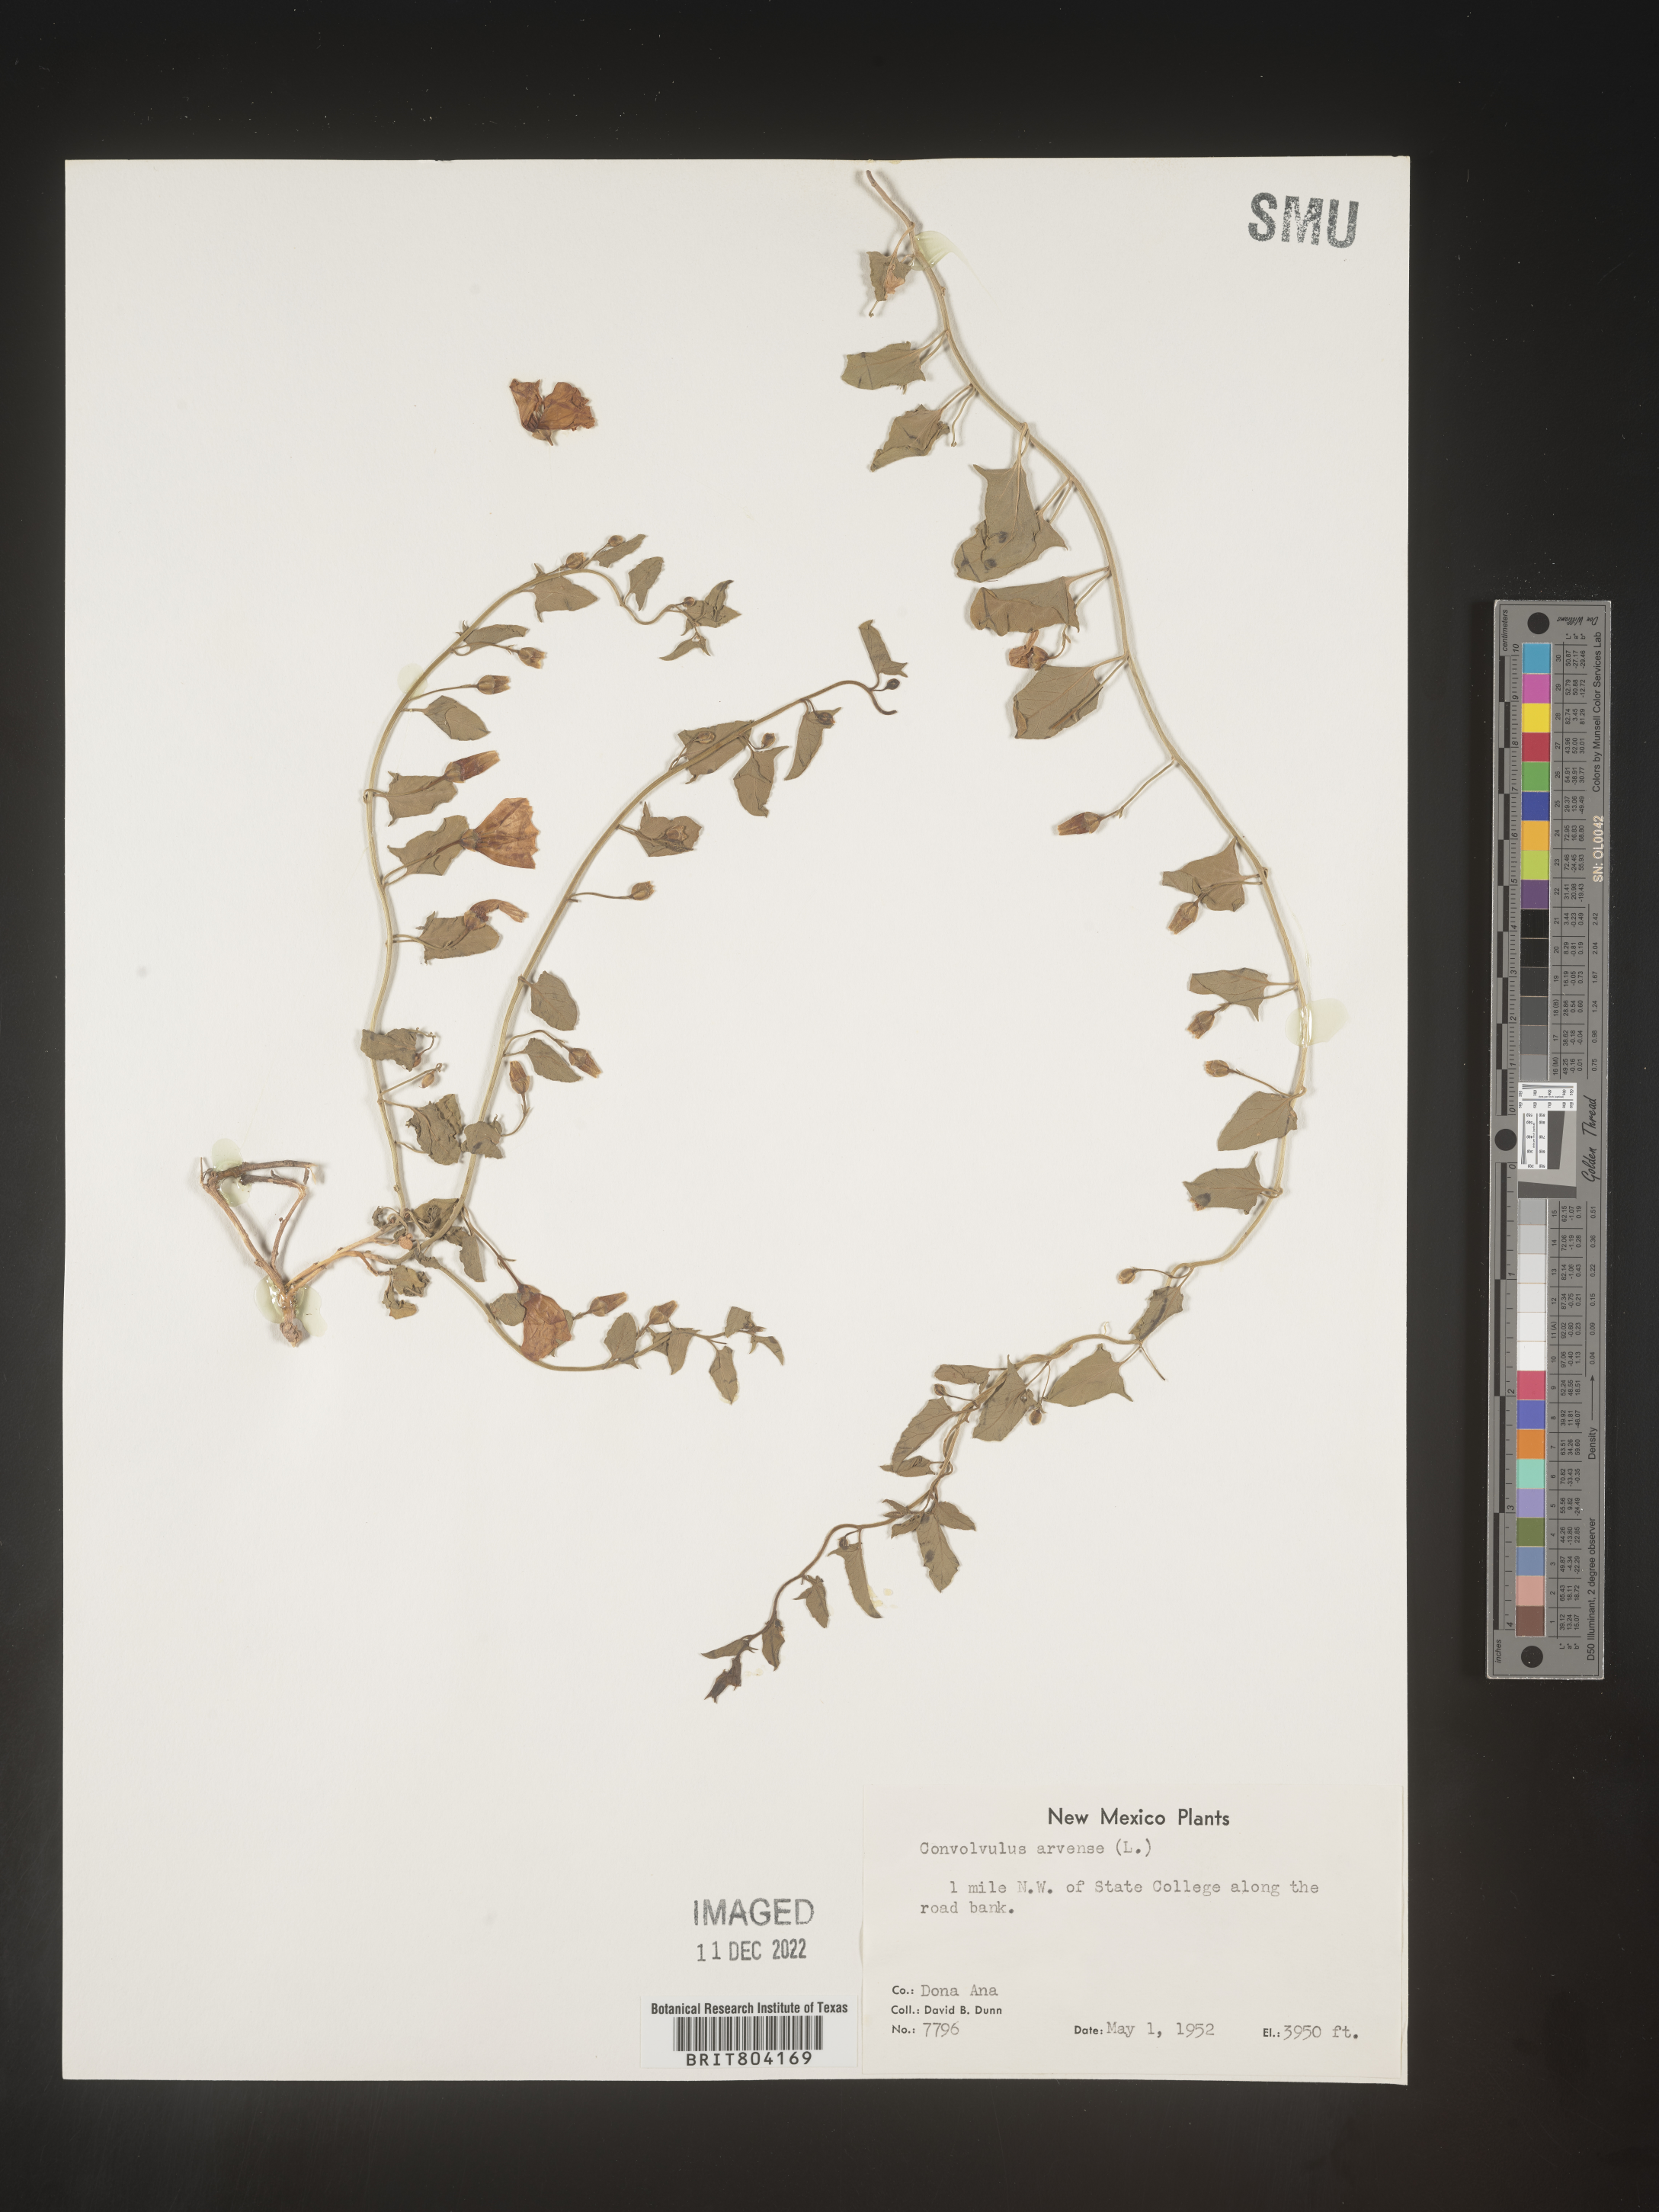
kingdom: Plantae
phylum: Tracheophyta
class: Magnoliopsida
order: Solanales
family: Convolvulaceae
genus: Convolvulus
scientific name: Convolvulus arvensis
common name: Field bindweed
